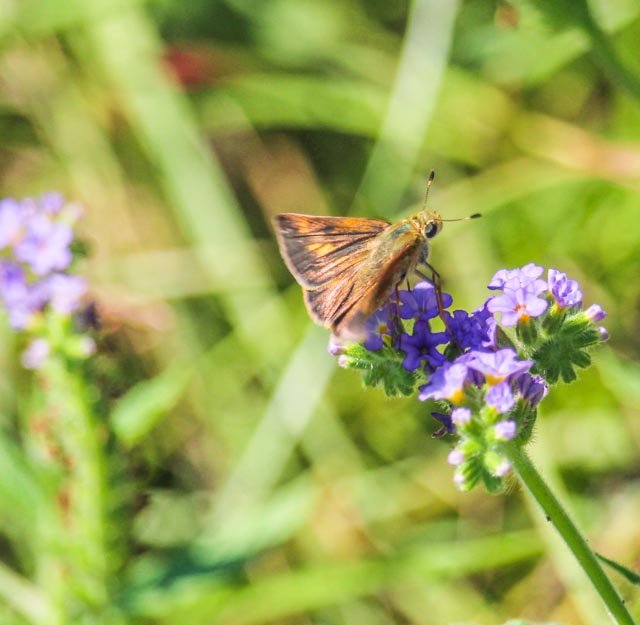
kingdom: Animalia
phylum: Arthropoda
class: Insecta
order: Lepidoptera
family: Hesperiidae
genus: Hylephila
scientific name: Hylephila phyleus
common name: Fiery Skipper
